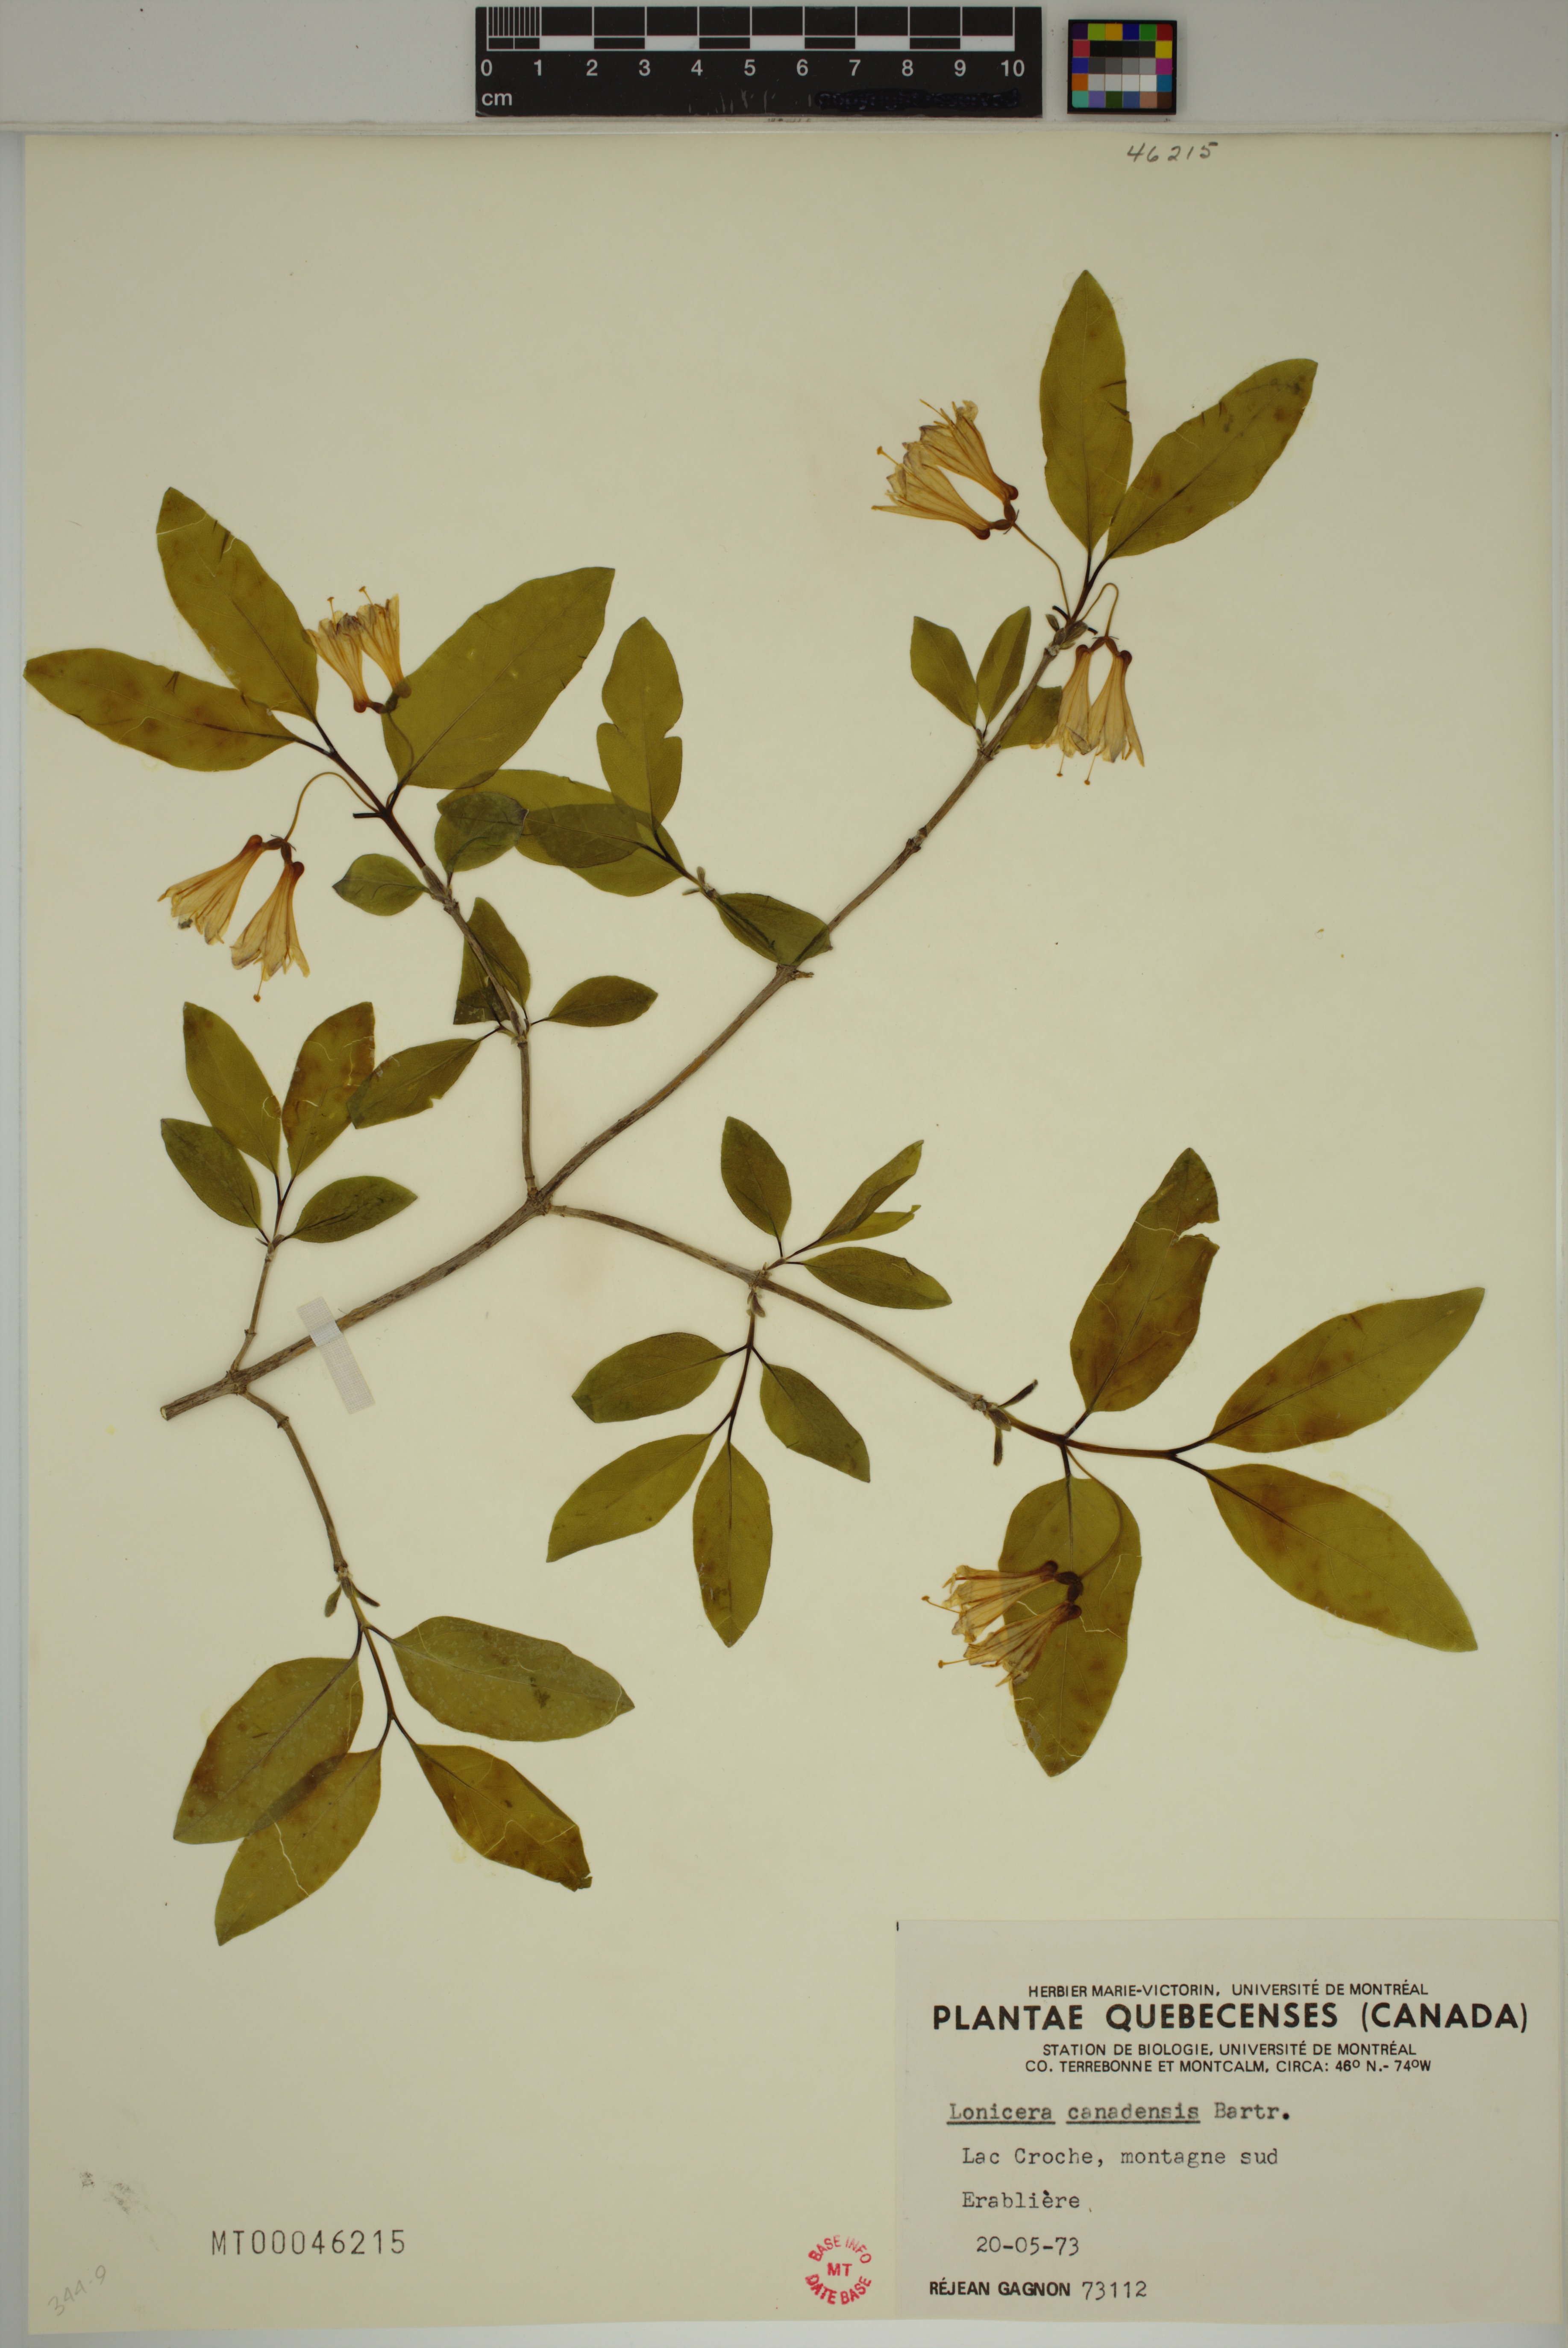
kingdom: Plantae
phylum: Tracheophyta
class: Magnoliopsida
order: Dipsacales
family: Caprifoliaceae
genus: Lonicera
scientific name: Lonicera canadensis
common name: American fly-honeysuckle
